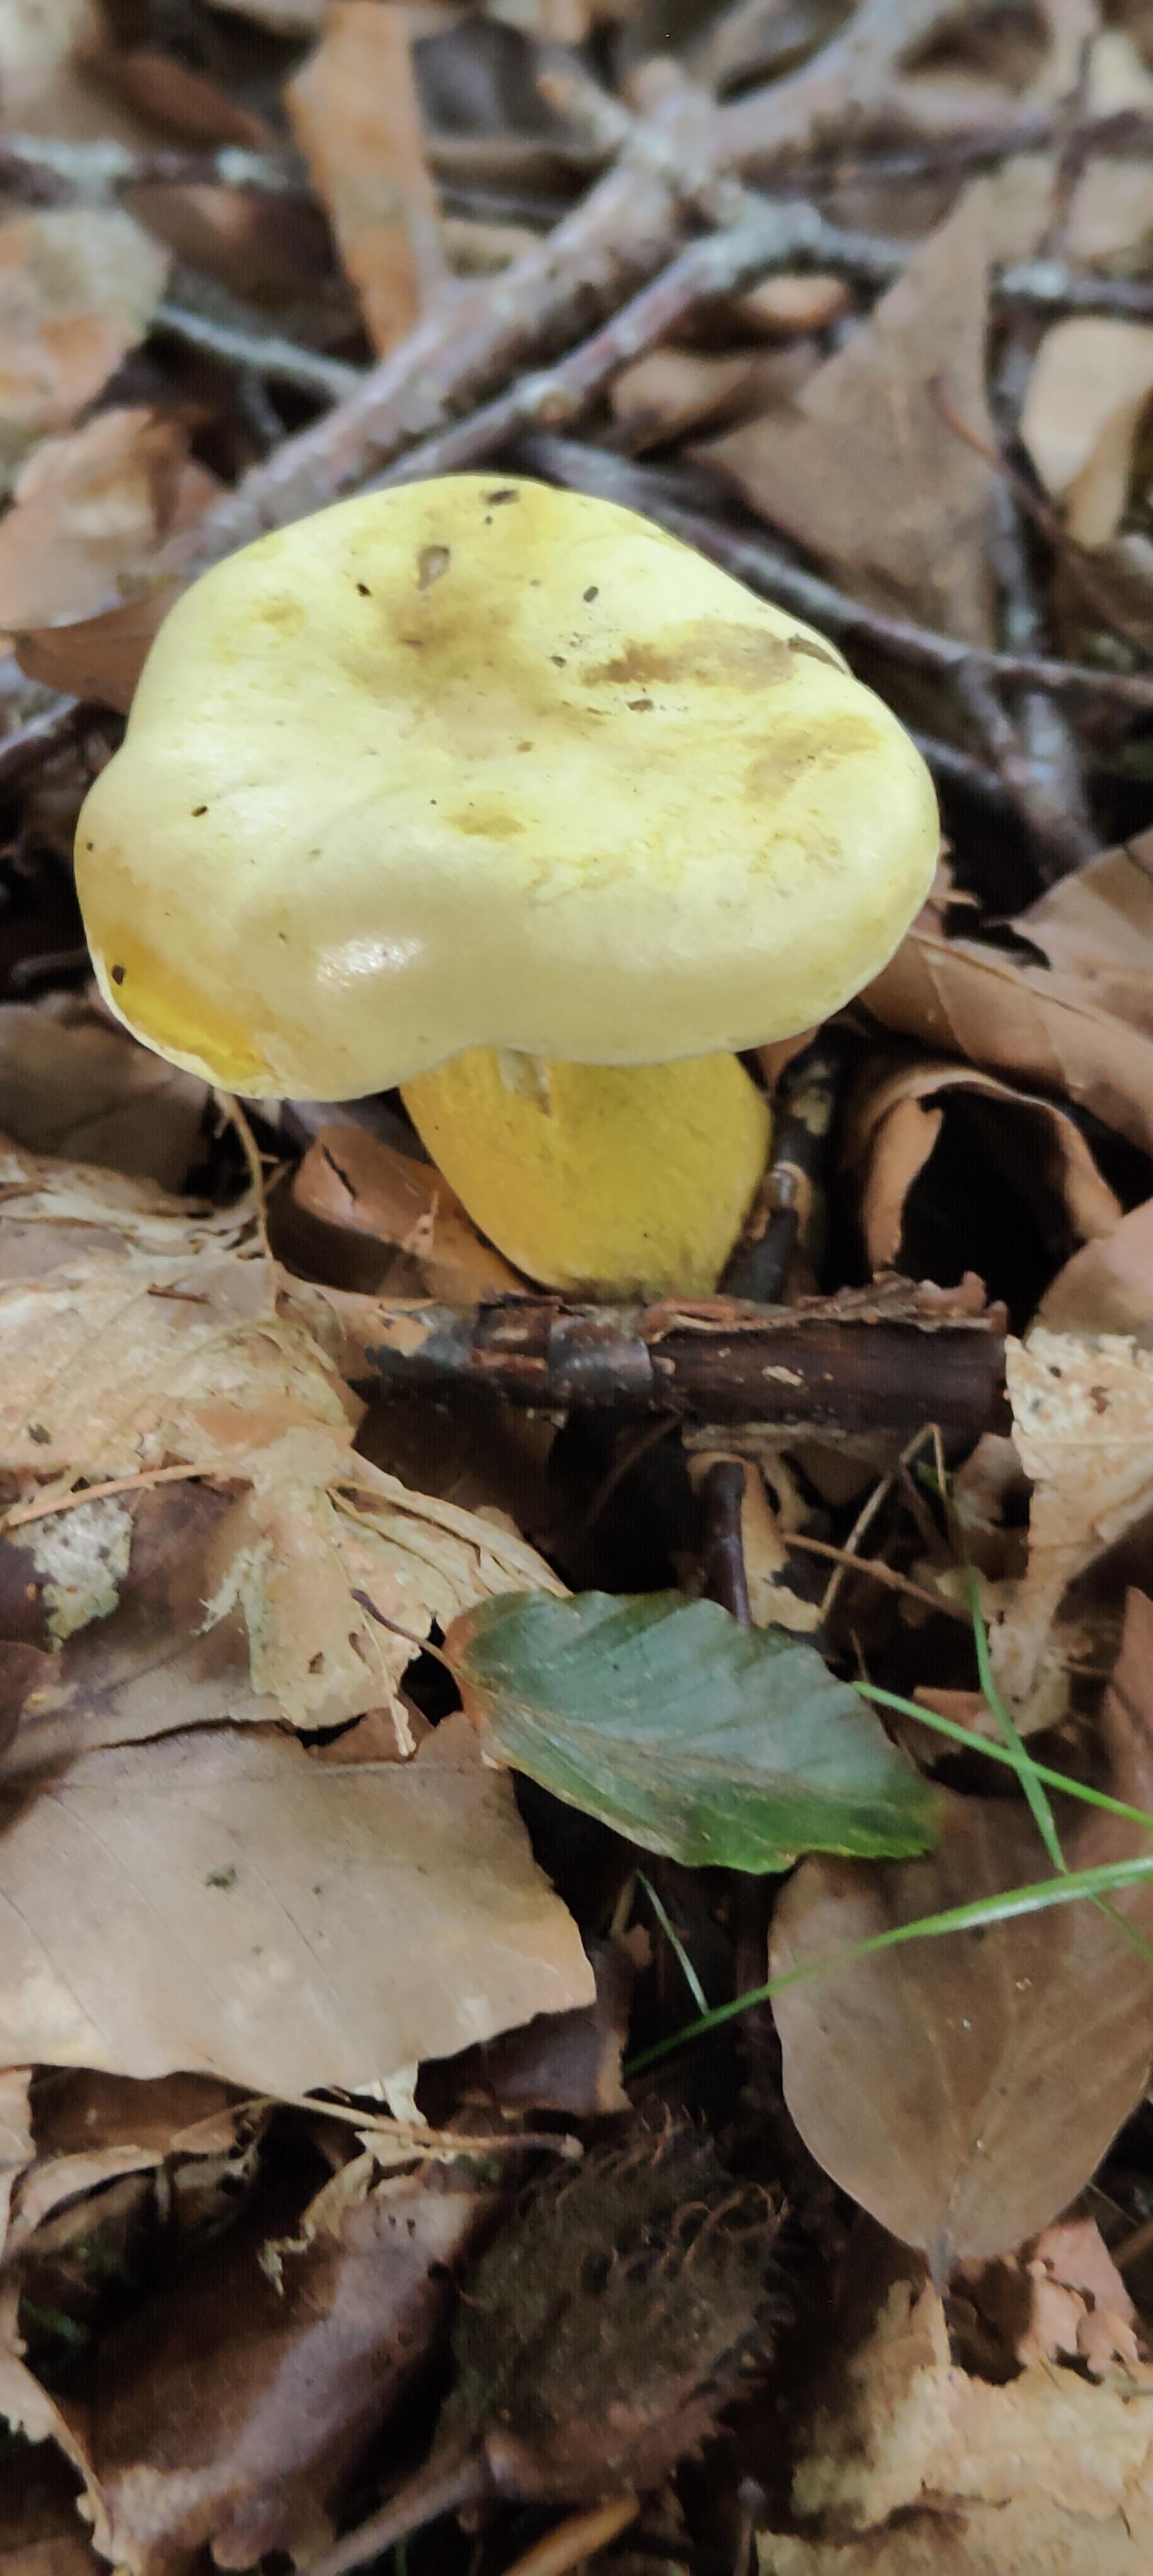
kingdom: Fungi
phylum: Basidiomycota
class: Agaricomycetes
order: Agaricales
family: Tricholomataceae
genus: Tricholoma
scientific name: Tricholoma sulphureum
